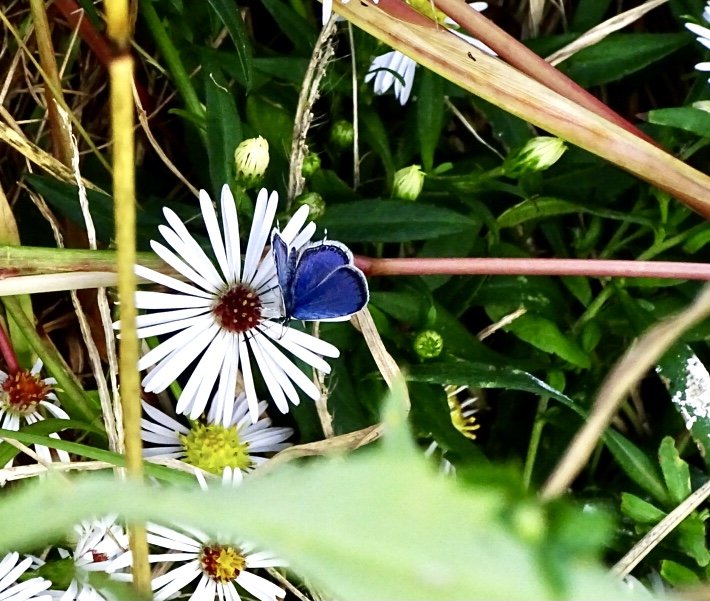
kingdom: Animalia
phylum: Arthropoda
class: Insecta
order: Lepidoptera
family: Lycaenidae
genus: Elkalyce
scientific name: Elkalyce comyntas
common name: Eastern Tailed-Blue
